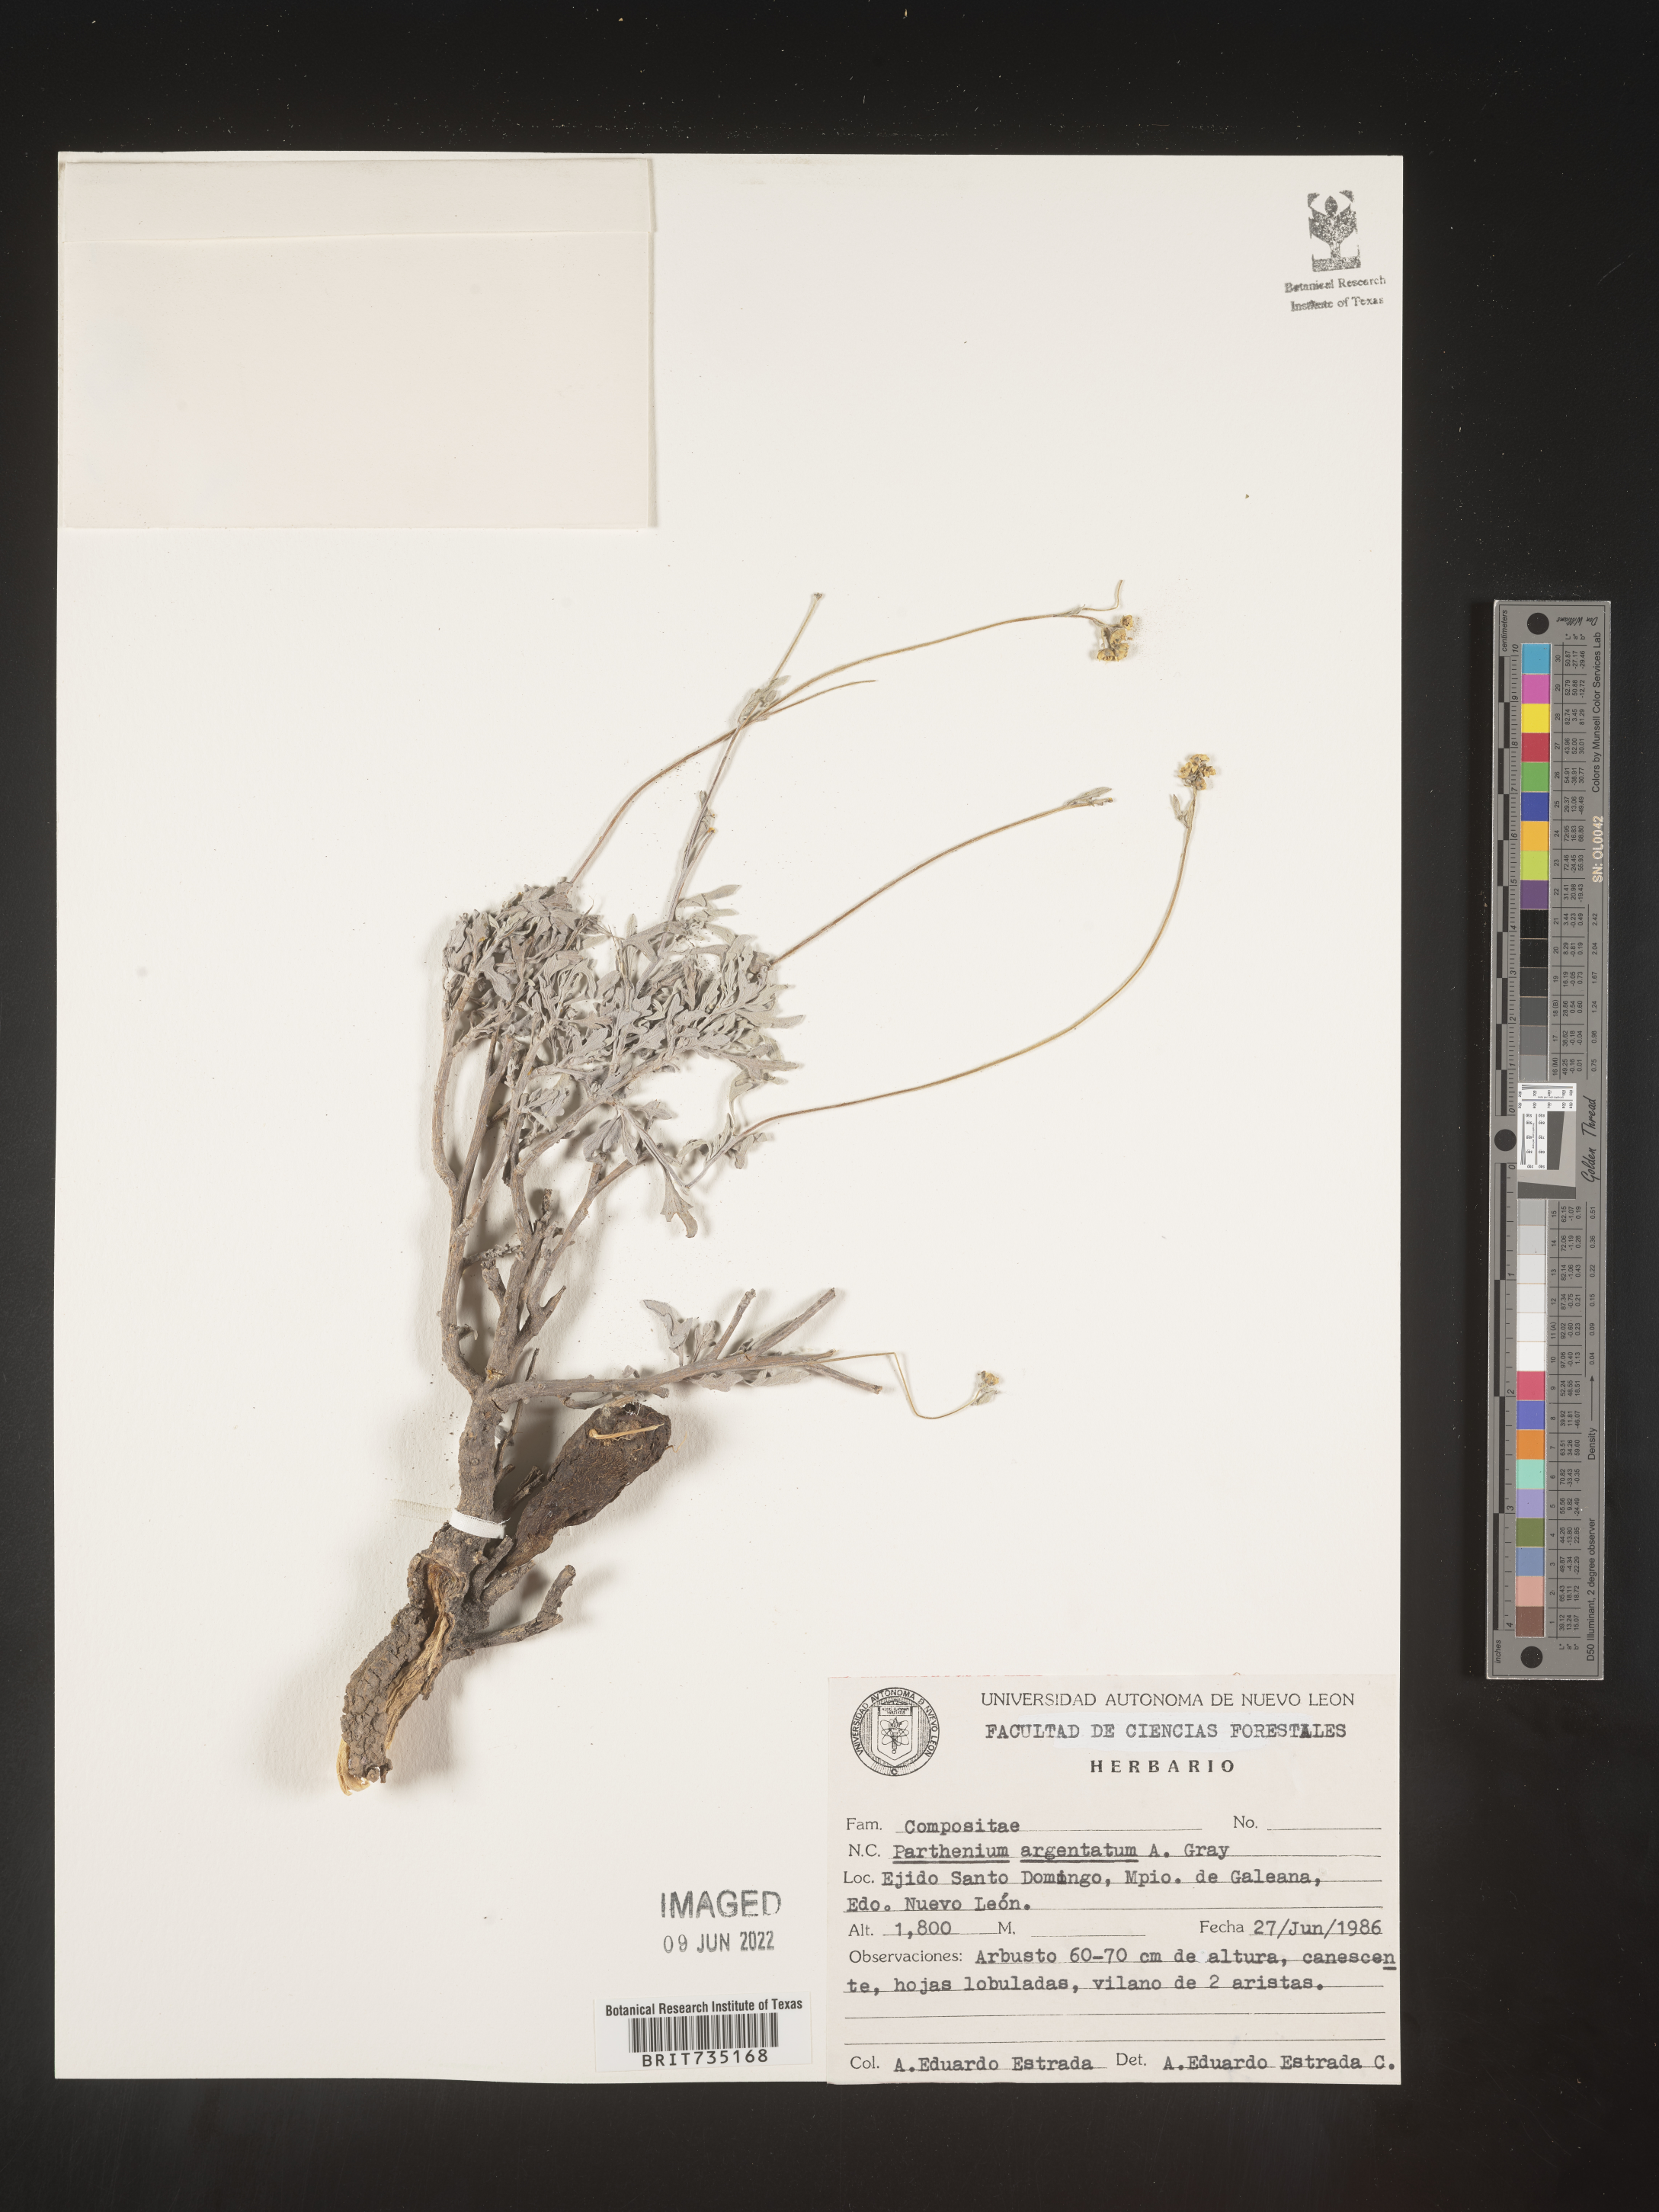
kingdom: Plantae
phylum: Tracheophyta
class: Magnoliopsida
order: Asterales
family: Asteraceae
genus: Parthenium
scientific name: Parthenium
